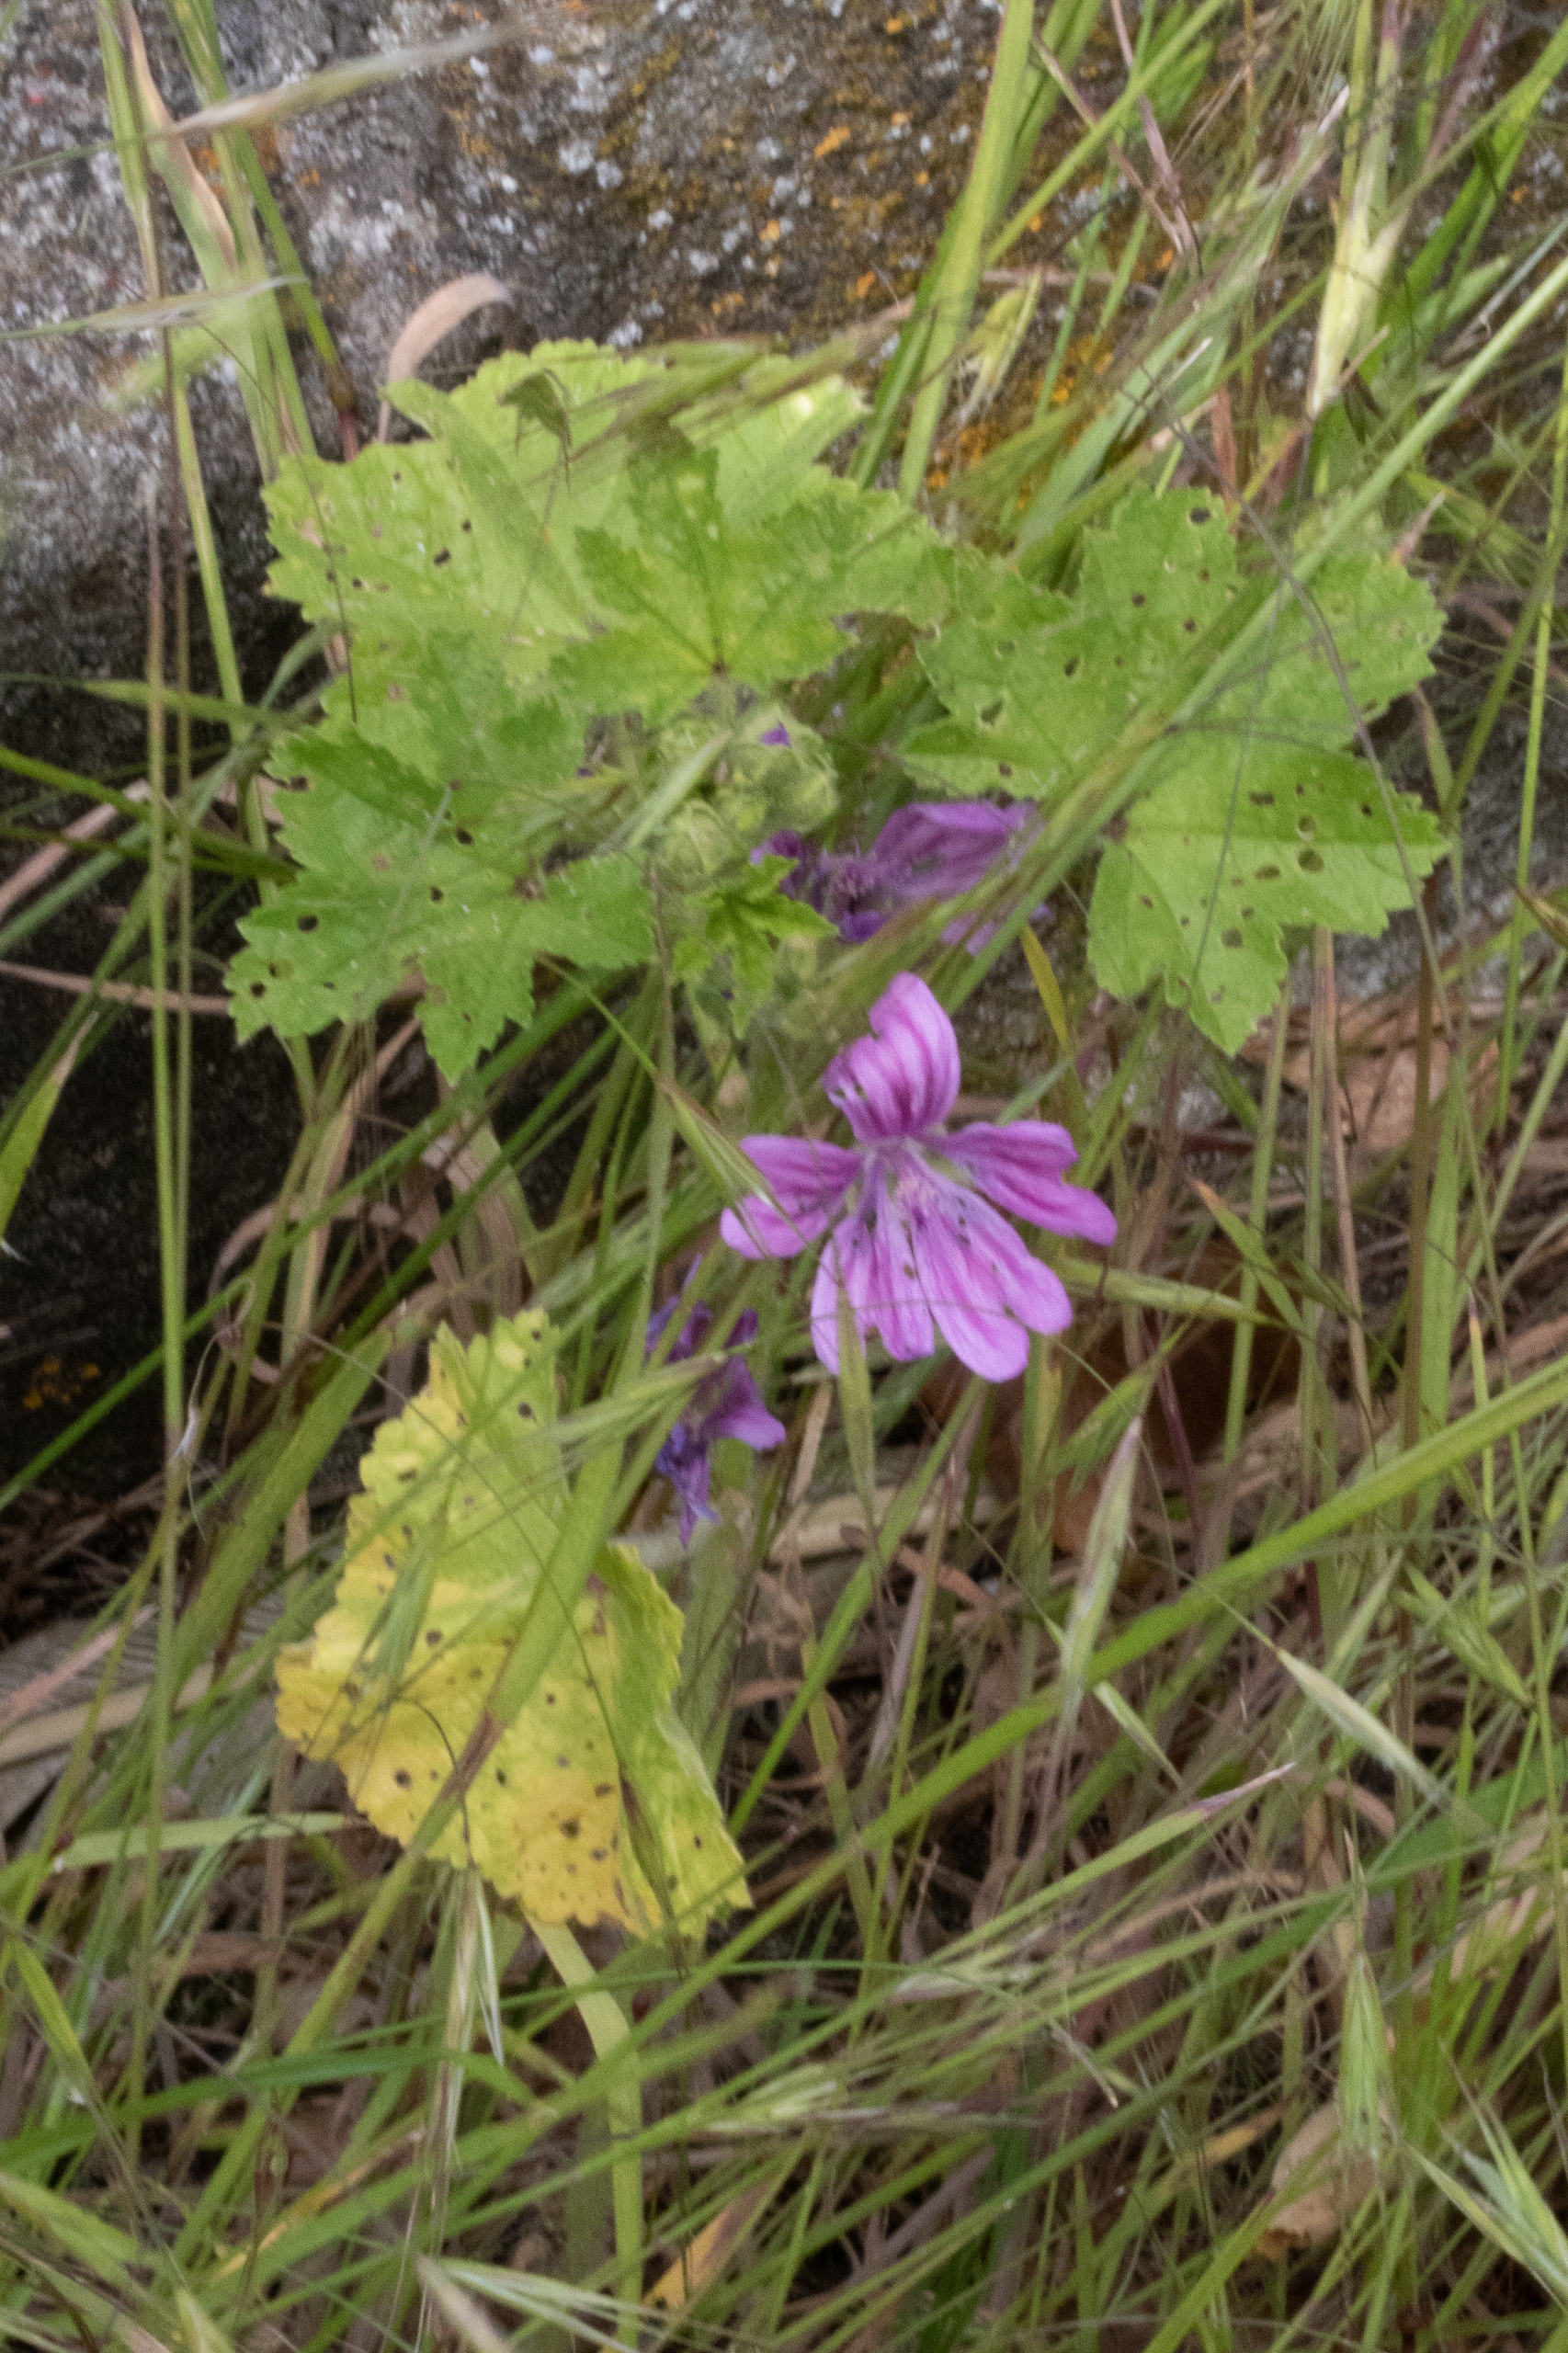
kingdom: Plantae
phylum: Tracheophyta
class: Magnoliopsida
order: Malvales
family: Malvaceae
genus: Malva
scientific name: Malva sylvestris
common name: Almindelig katost
